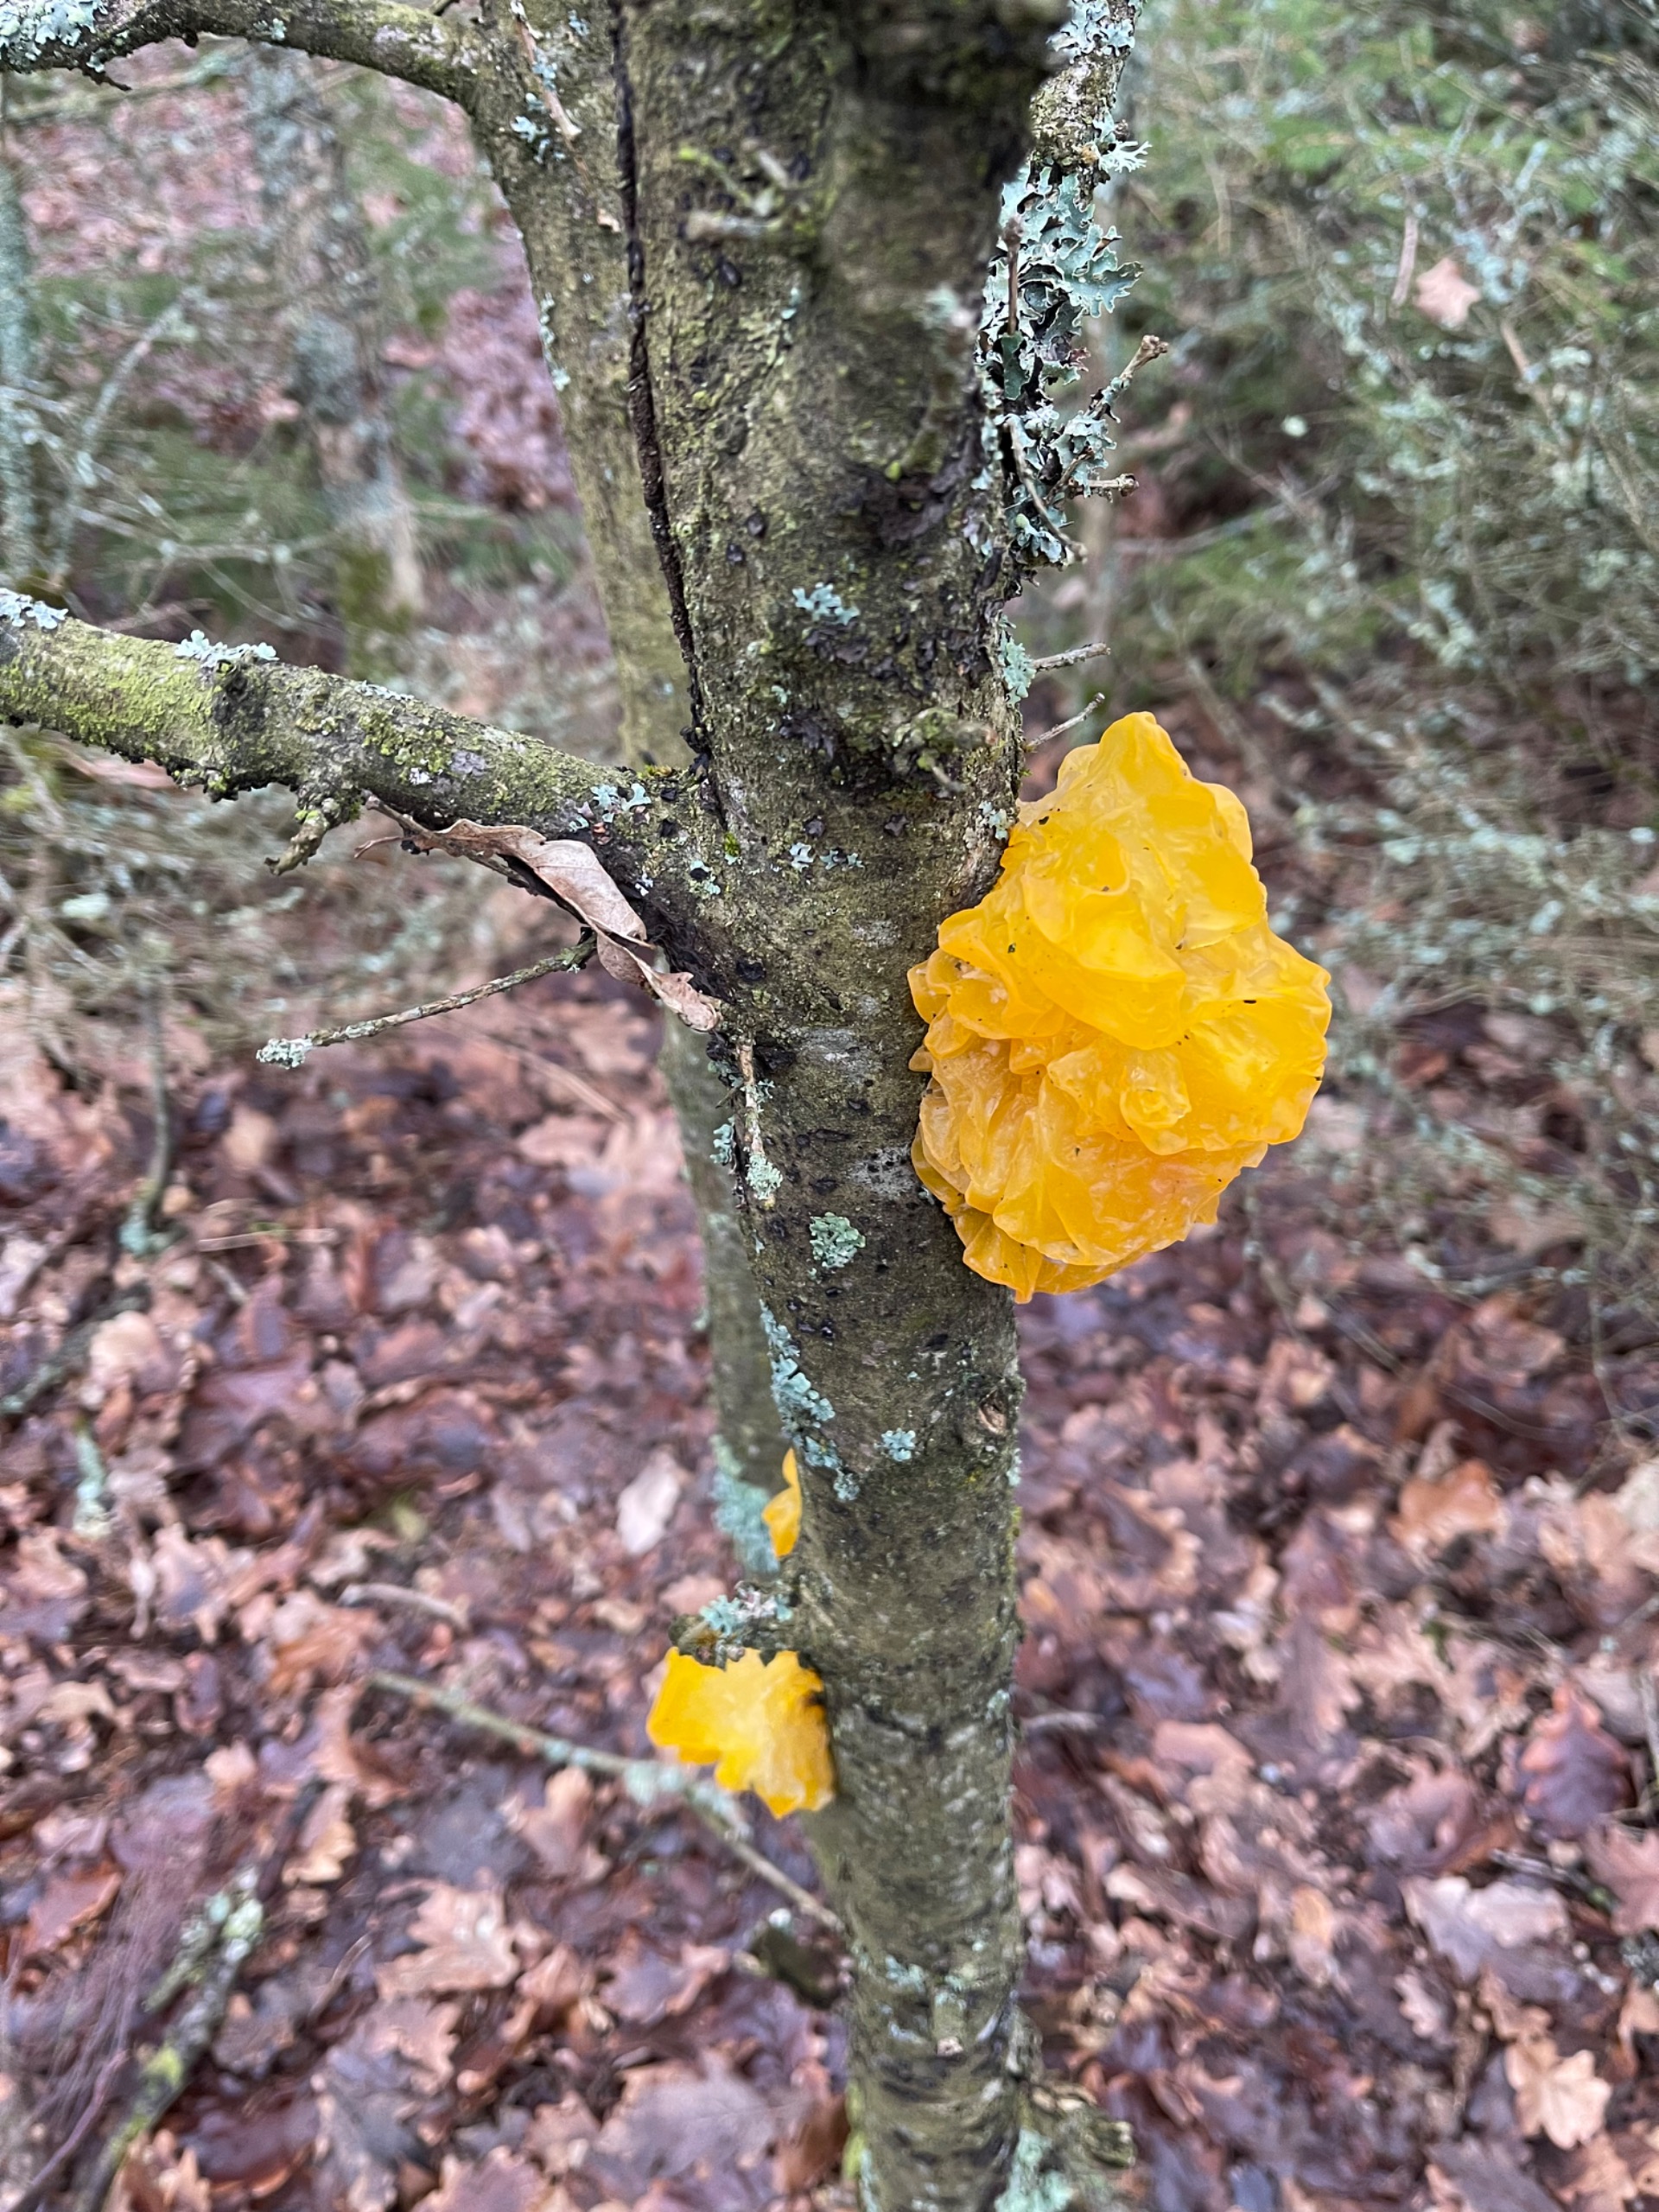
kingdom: Fungi
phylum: Basidiomycota
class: Tremellomycetes
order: Tremellales
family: Tremellaceae
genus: Tremella
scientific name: Tremella mesenterica
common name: Gul bævresvamp
